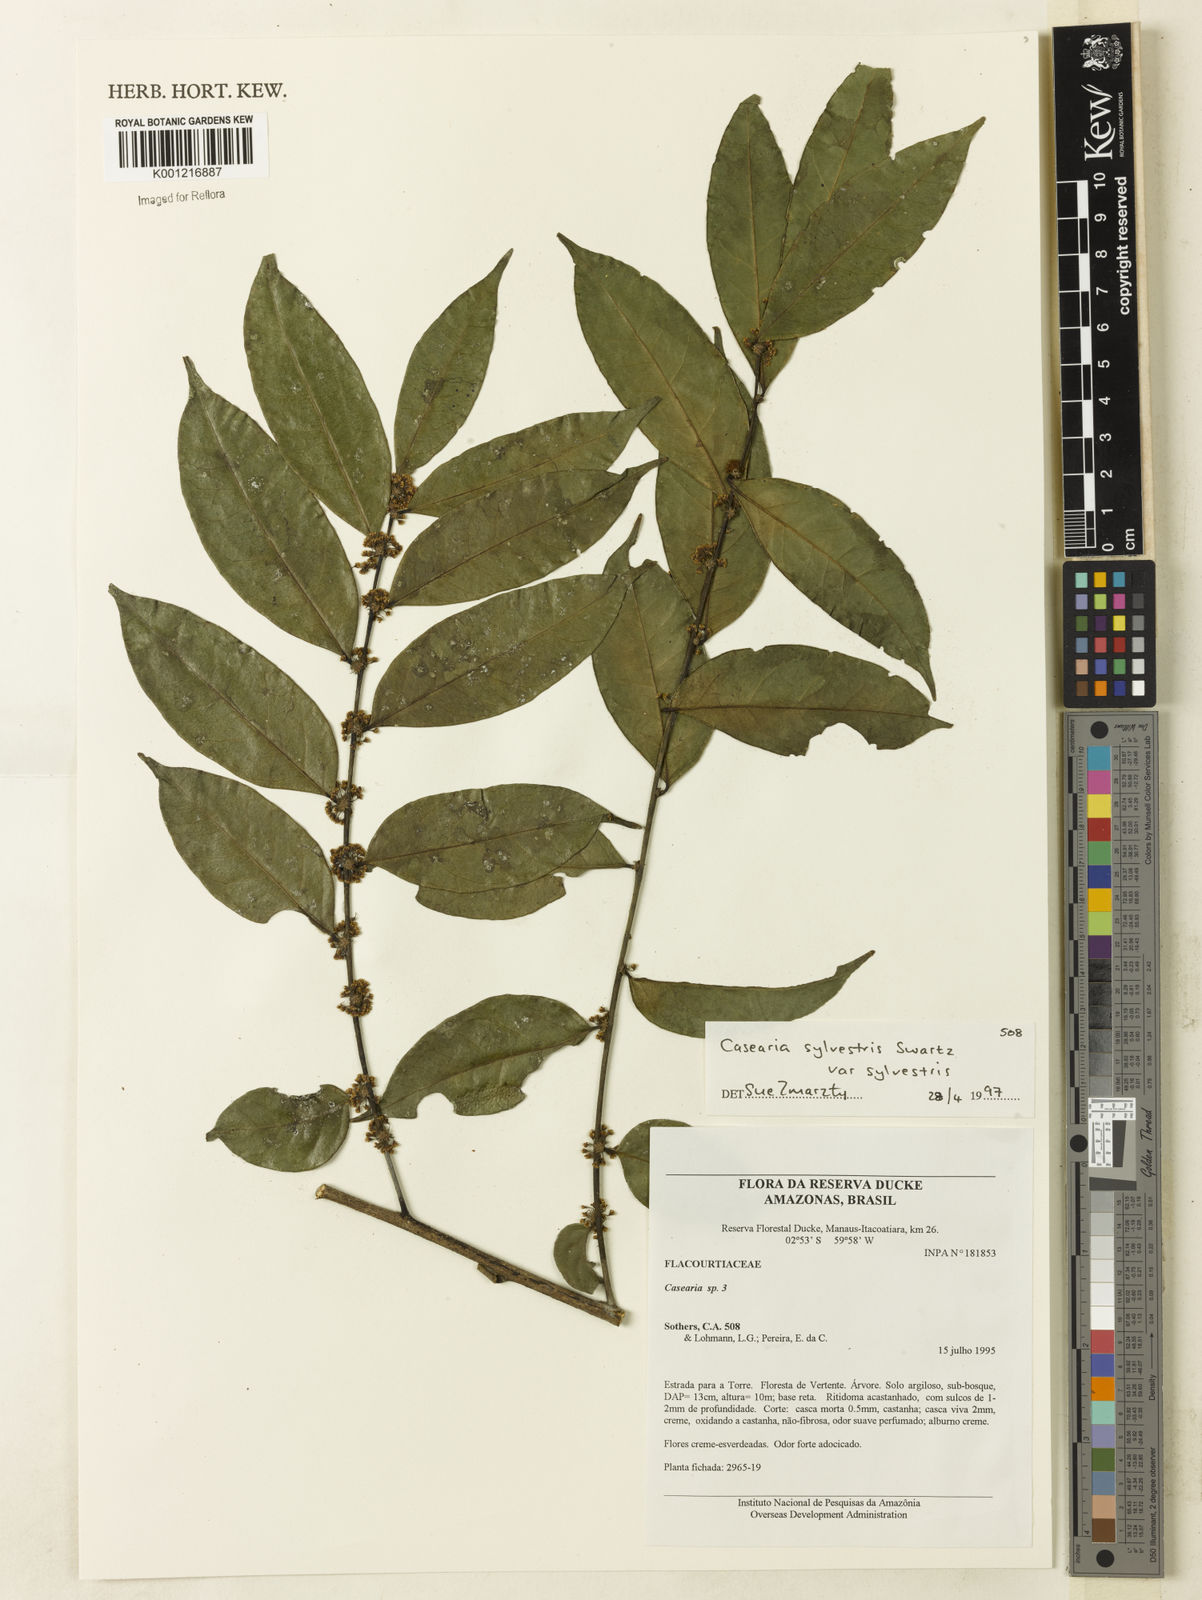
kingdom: Plantae
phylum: Tracheophyta
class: Magnoliopsida
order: Malpighiales
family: Salicaceae
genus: Casearia
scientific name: Casearia sylvestris
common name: Wild sage
